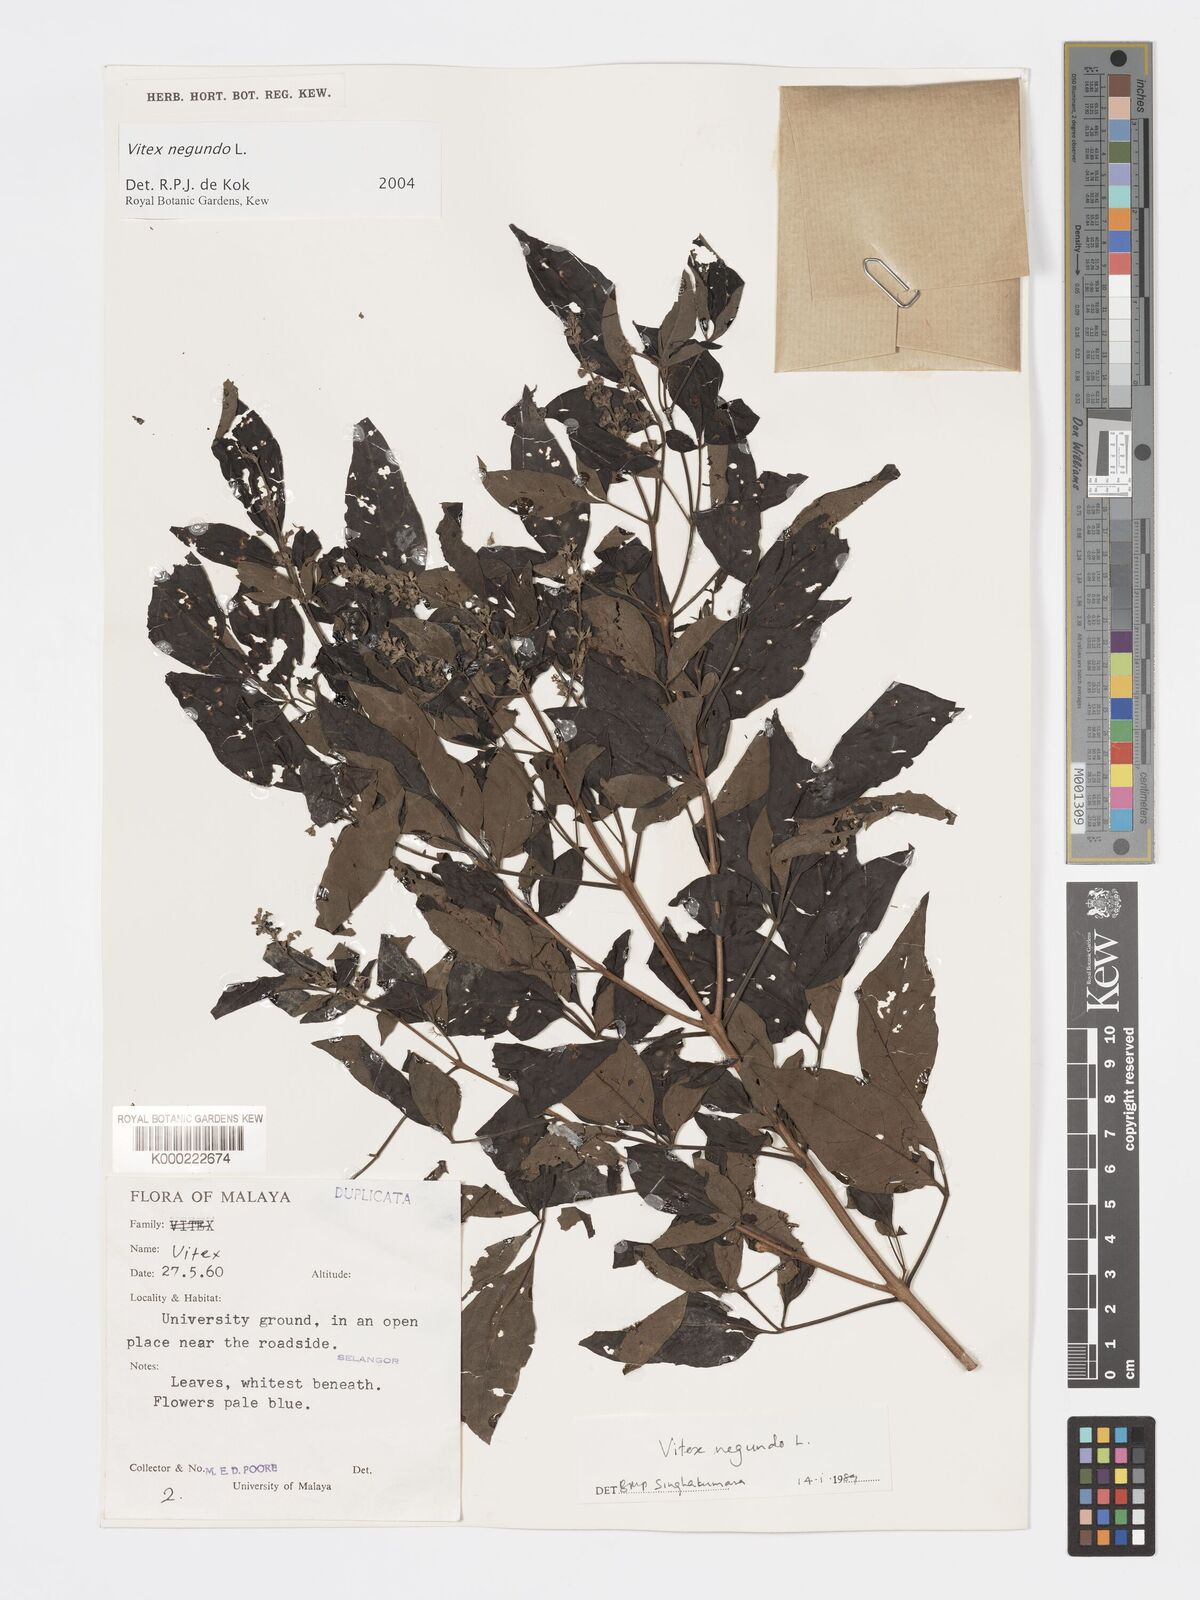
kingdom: Plantae
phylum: Tracheophyta
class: Magnoliopsida
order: Lamiales
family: Lamiaceae
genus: Vitex
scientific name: Vitex negundo
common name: Chinese chastetree
